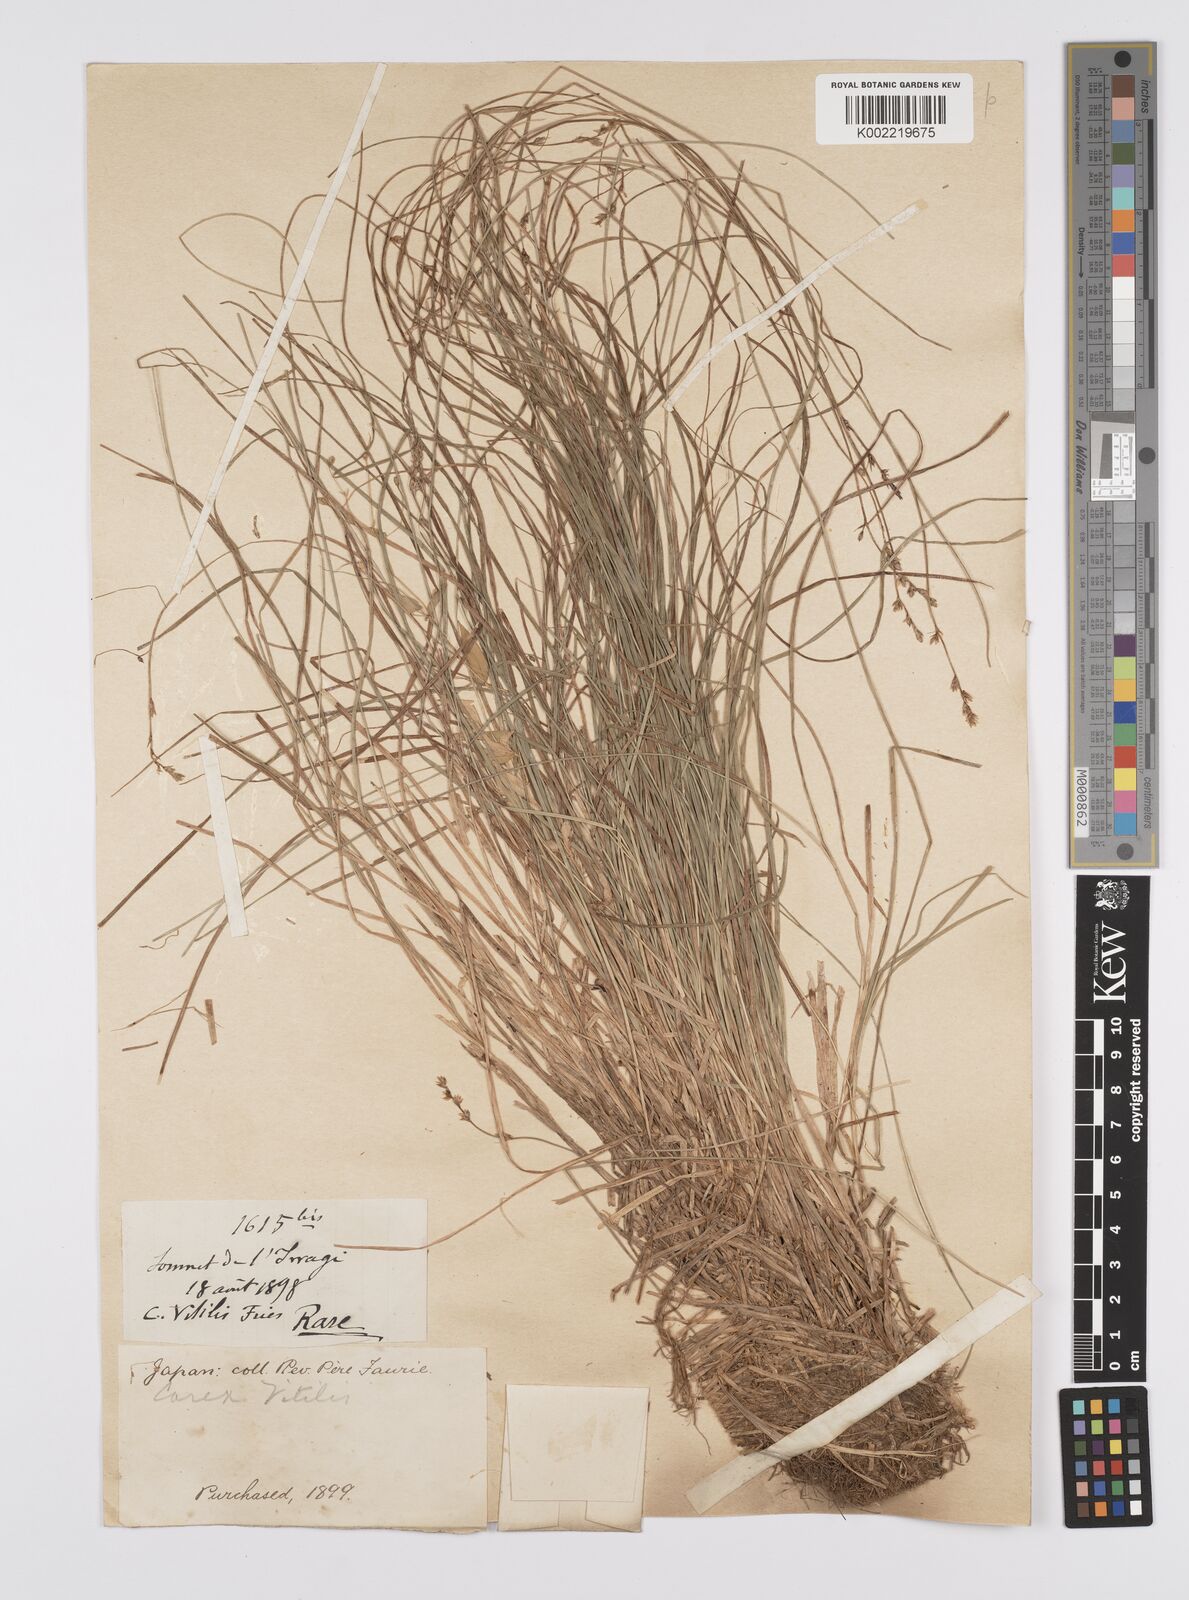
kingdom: Plantae
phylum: Tracheophyta
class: Liliopsida
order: Poales
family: Cyperaceae
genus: Carex
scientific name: Carex brunnescens
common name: Brown sedge
